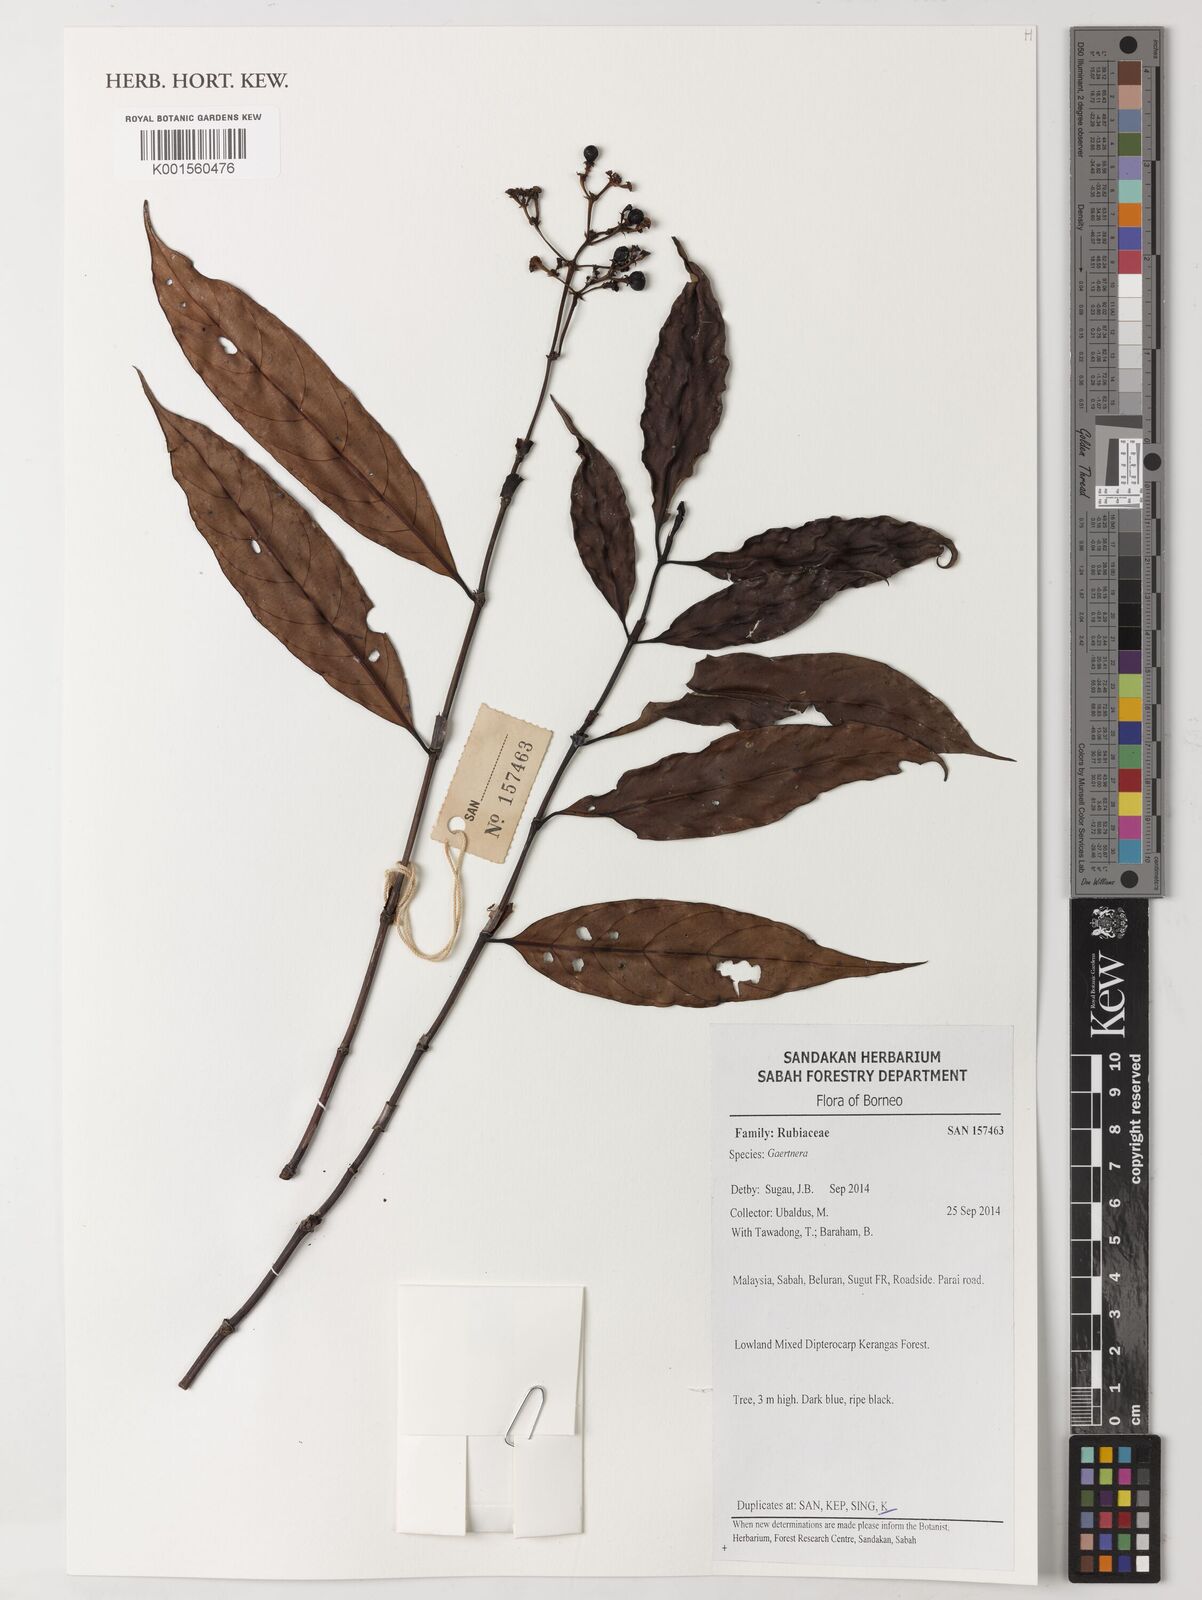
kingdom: Plantae
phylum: Tracheophyta
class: Magnoliopsida
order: Gentianales
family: Rubiaceae
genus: Gaertnera
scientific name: Gaertnera
